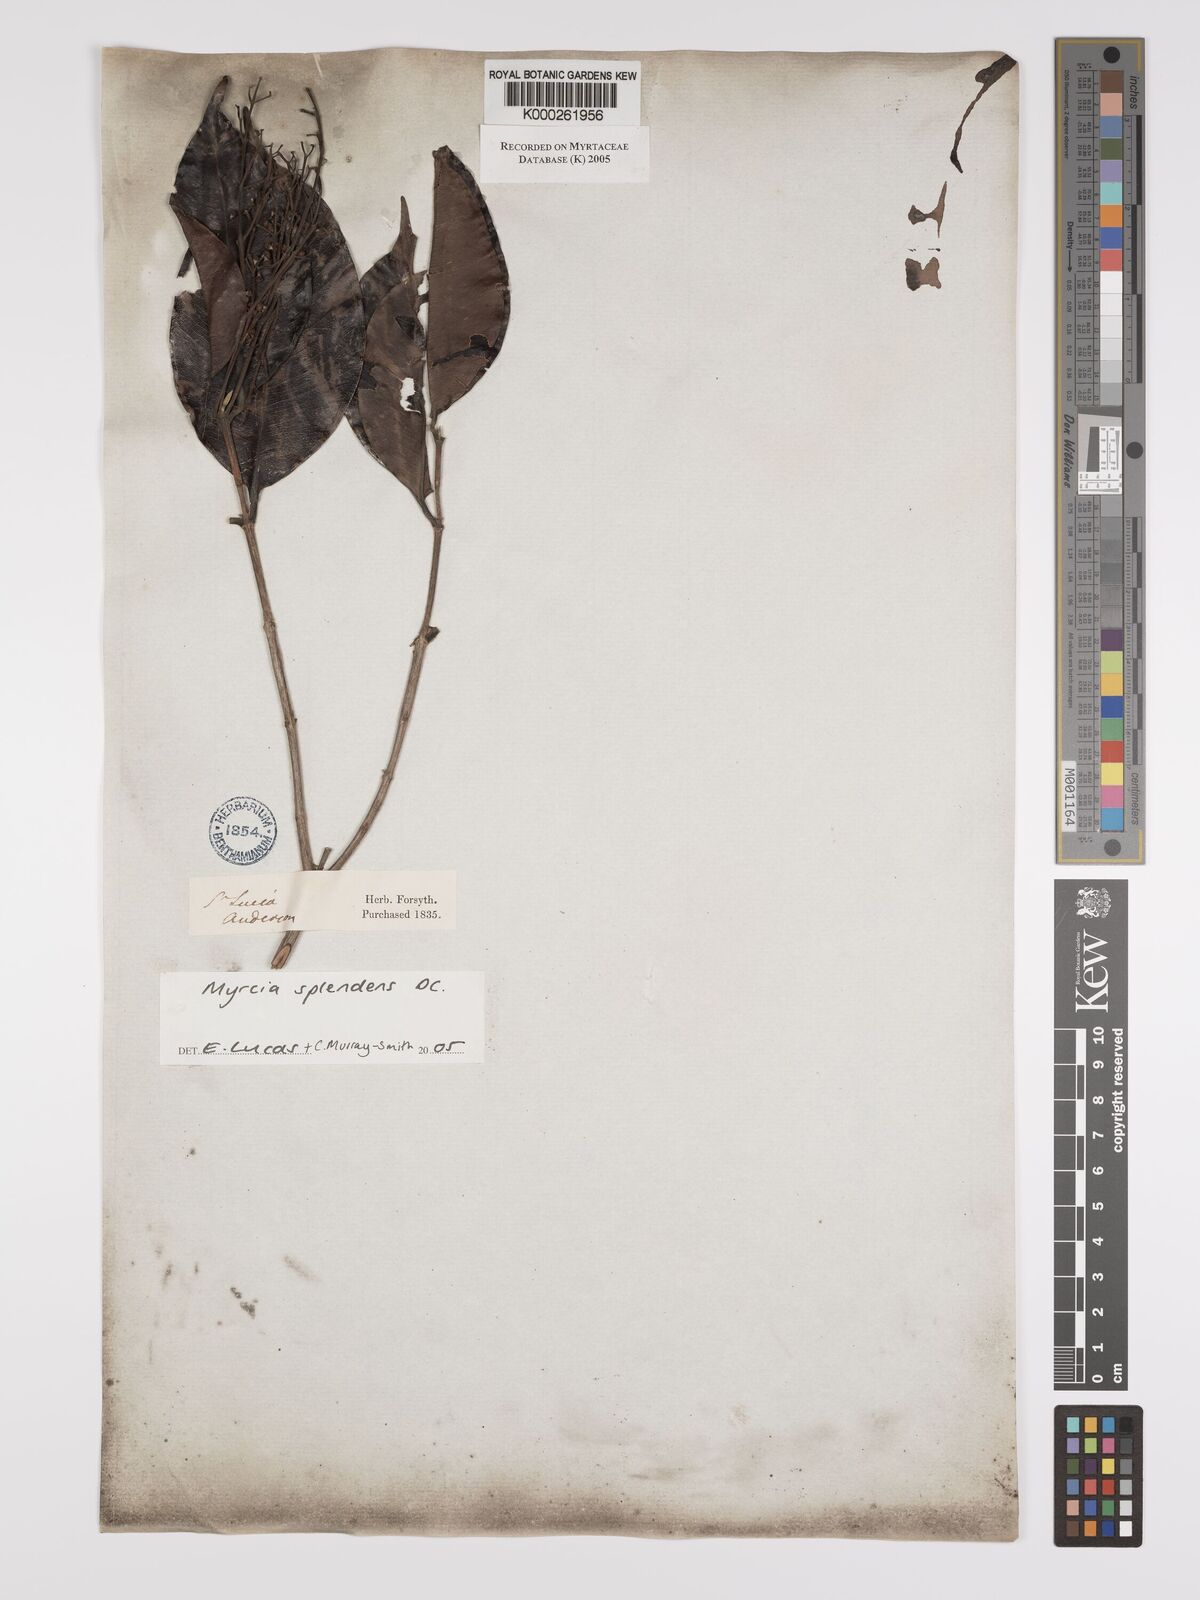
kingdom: Plantae
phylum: Tracheophyta
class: Magnoliopsida
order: Myrtales
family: Myrtaceae
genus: Myrcia
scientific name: Myrcia splendens
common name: Surinam cherry
